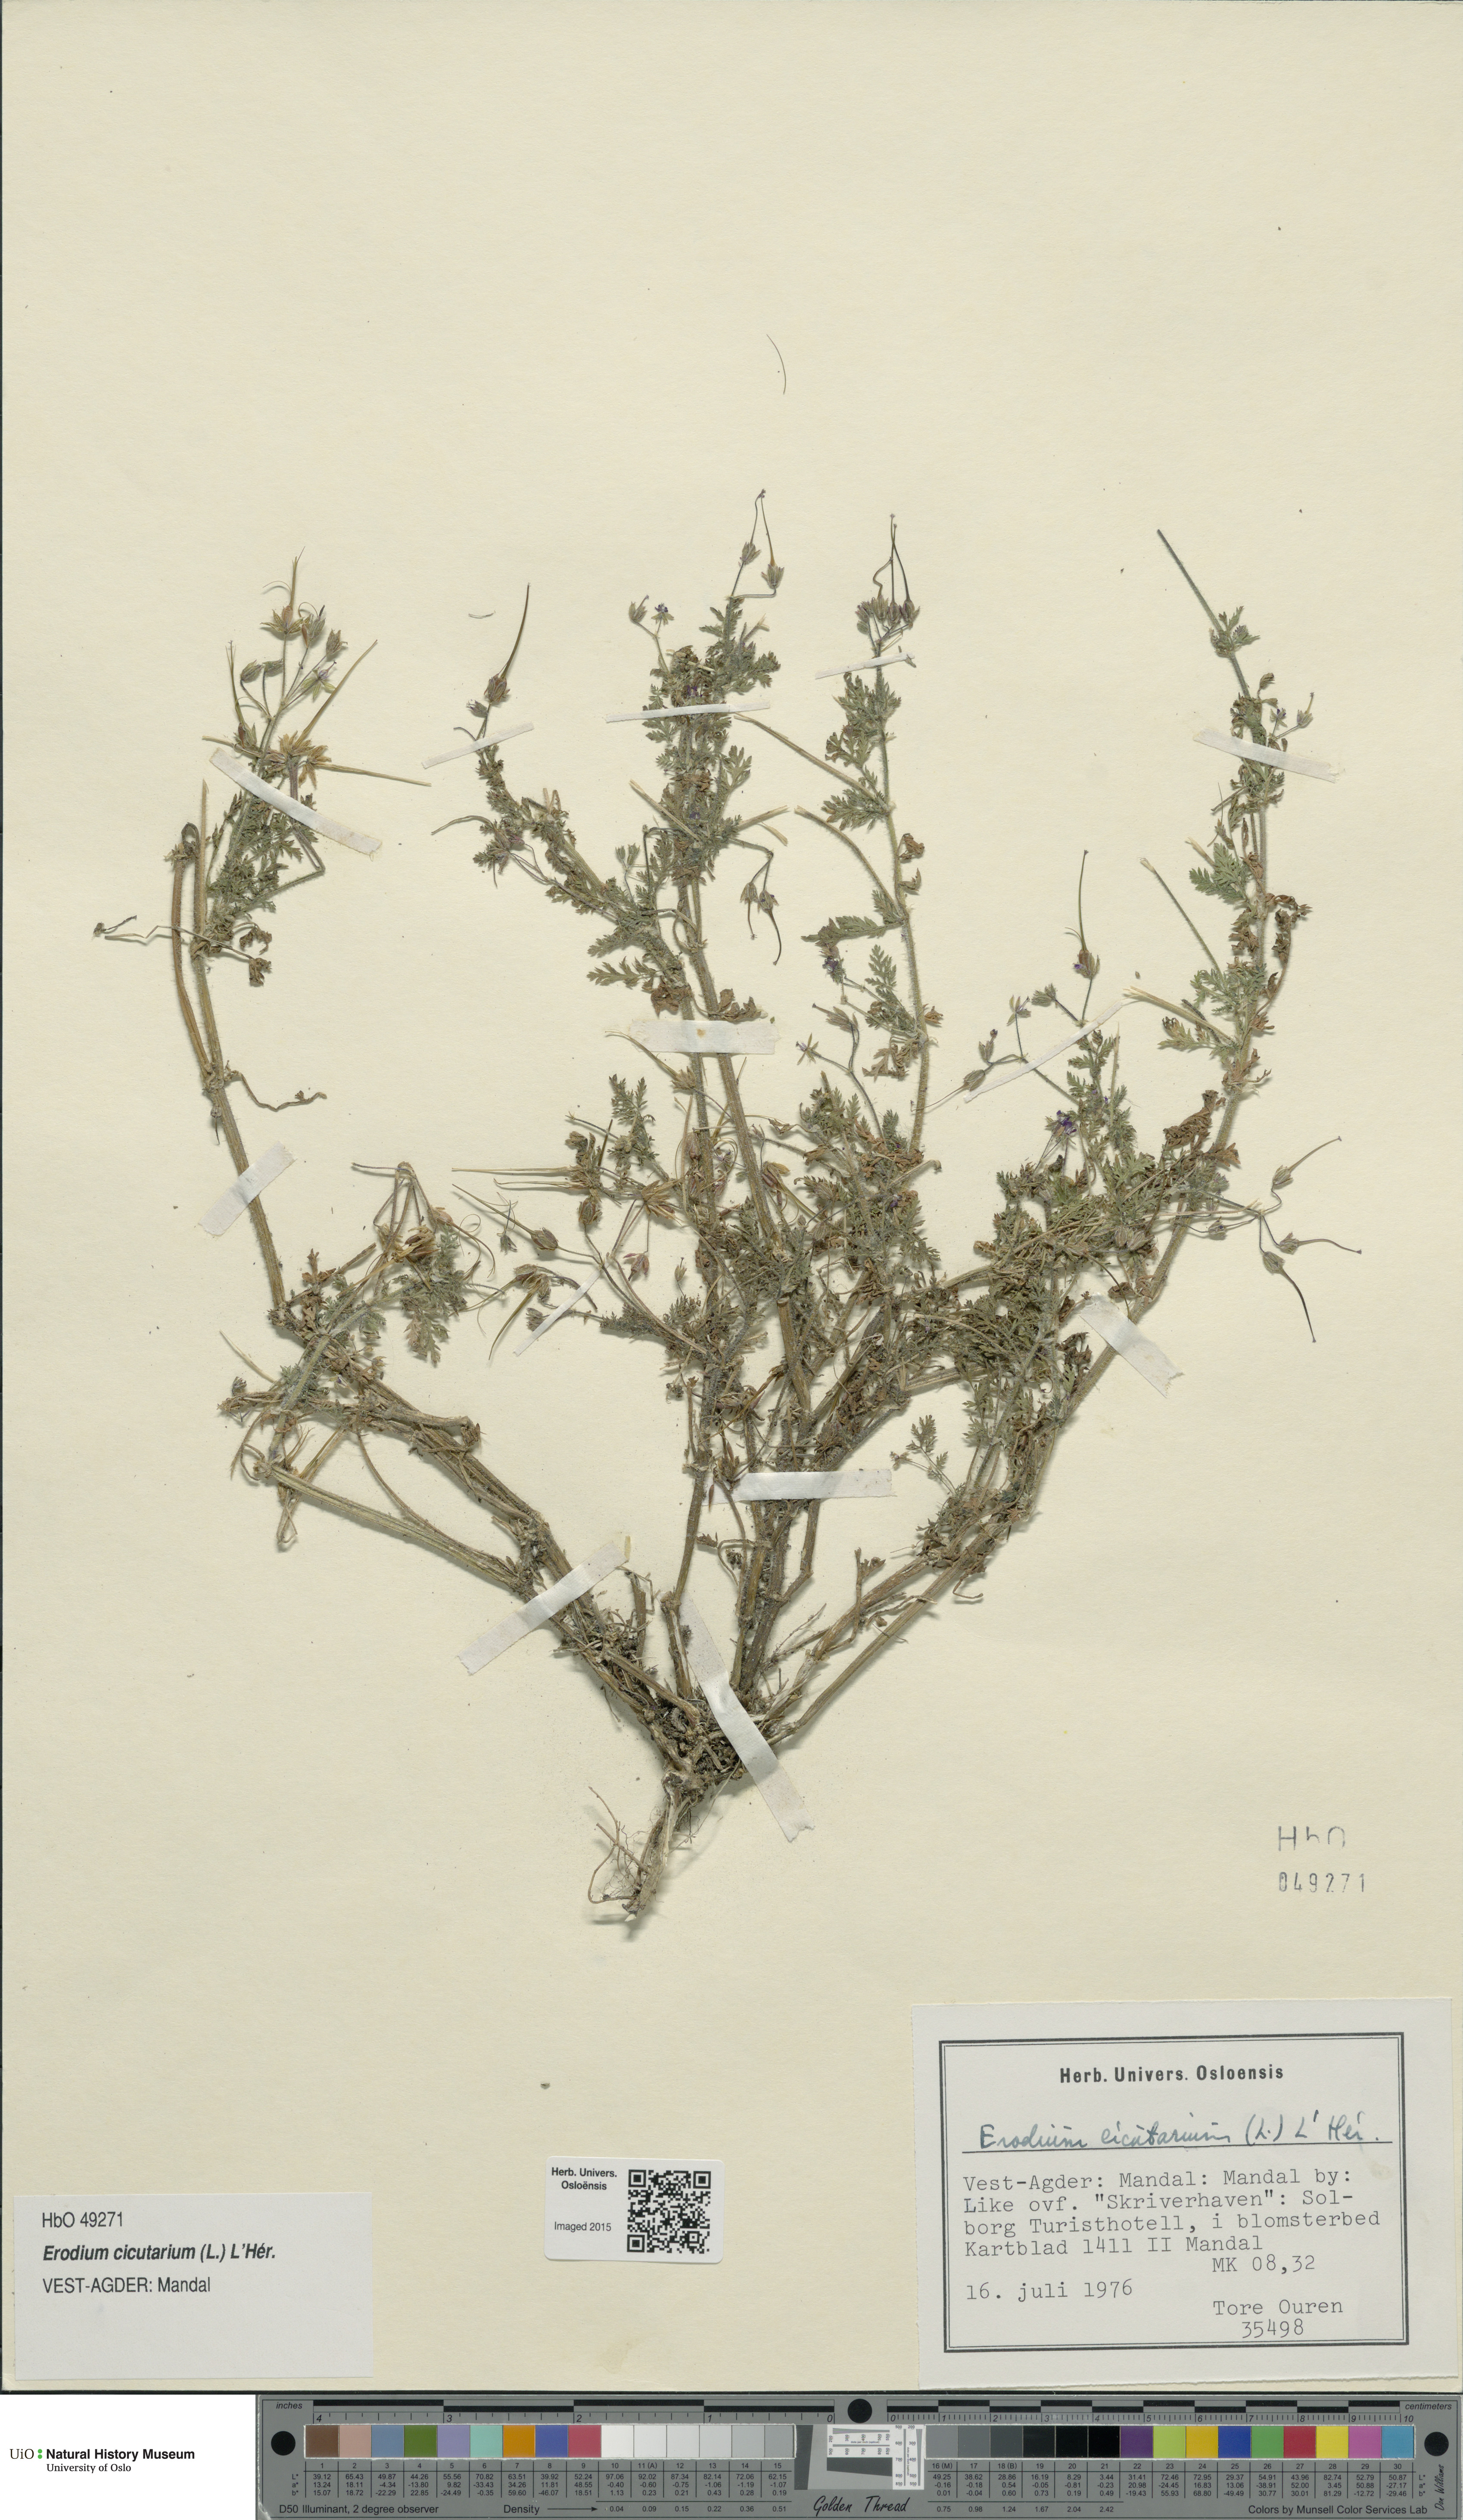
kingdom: Plantae
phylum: Tracheophyta
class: Magnoliopsida
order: Geraniales
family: Geraniaceae
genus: Erodium
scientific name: Erodium cicutarium
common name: Common stork's-bill
